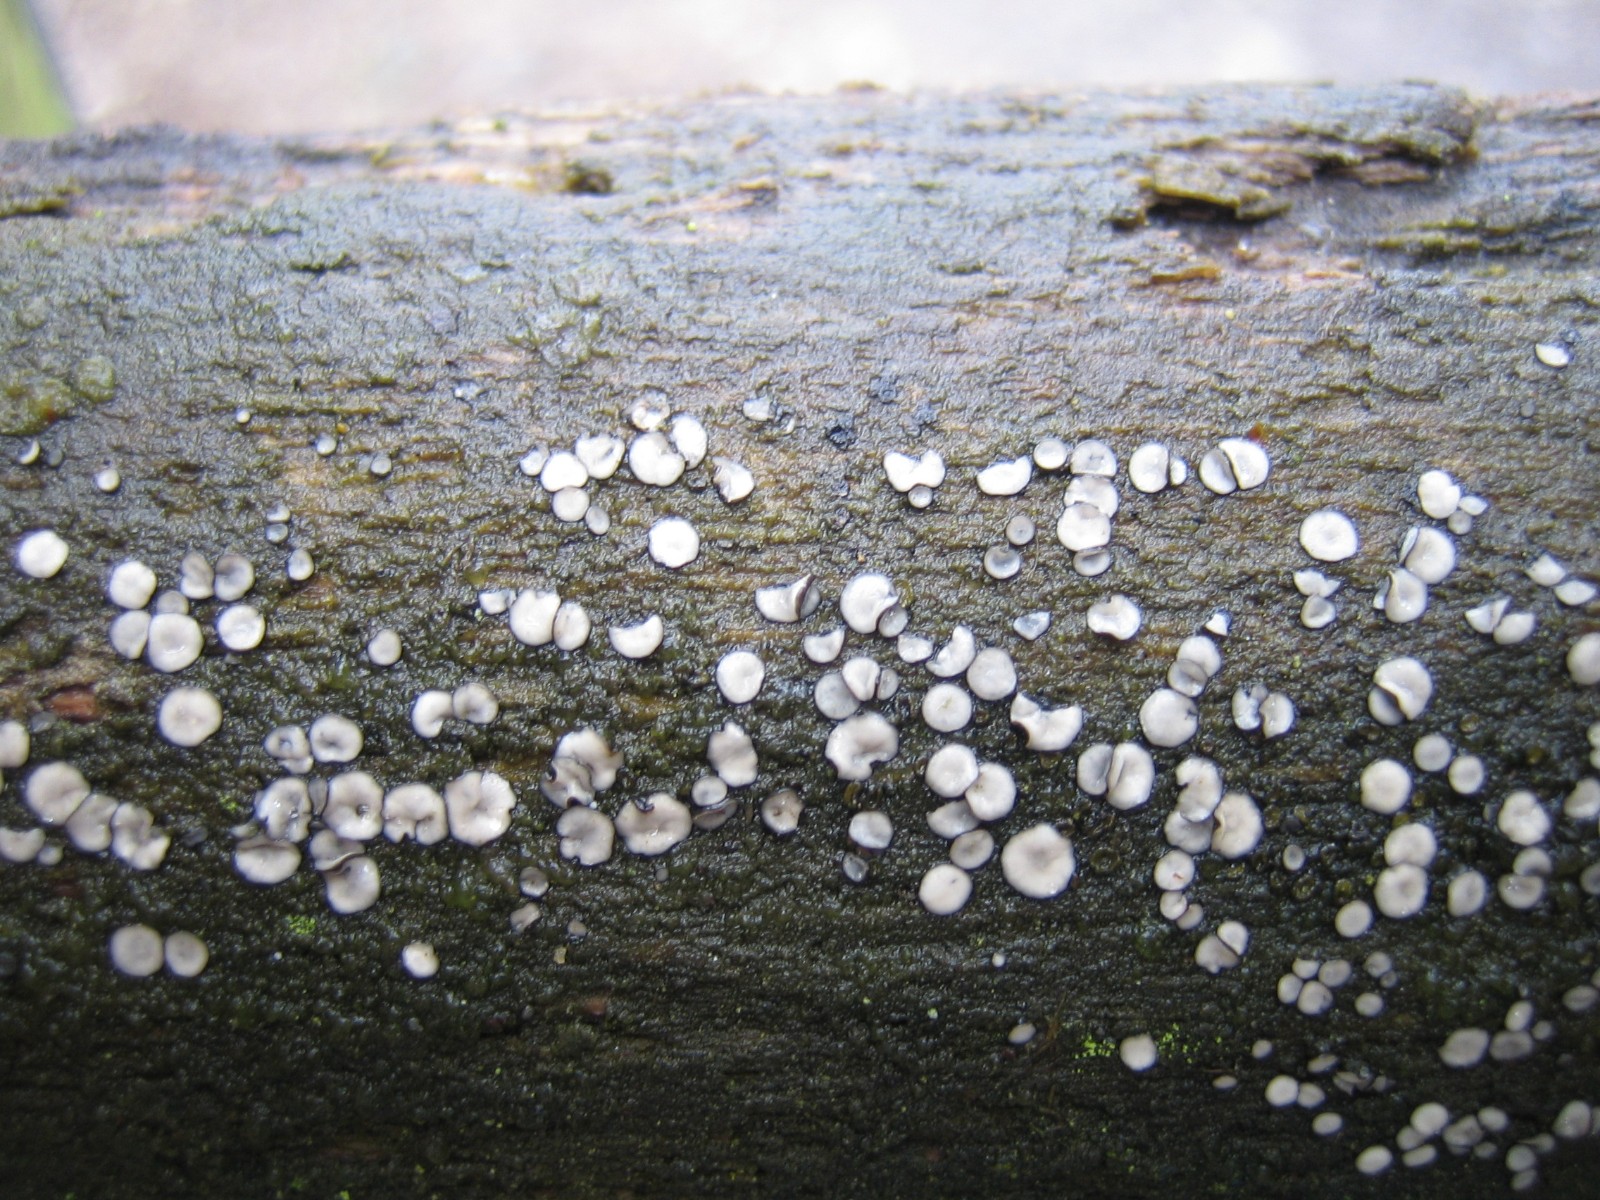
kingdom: Fungi
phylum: Ascomycota
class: Leotiomycetes
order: Helotiales
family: Mollisiaceae
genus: Mollisia
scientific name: Mollisia
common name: gråskive
